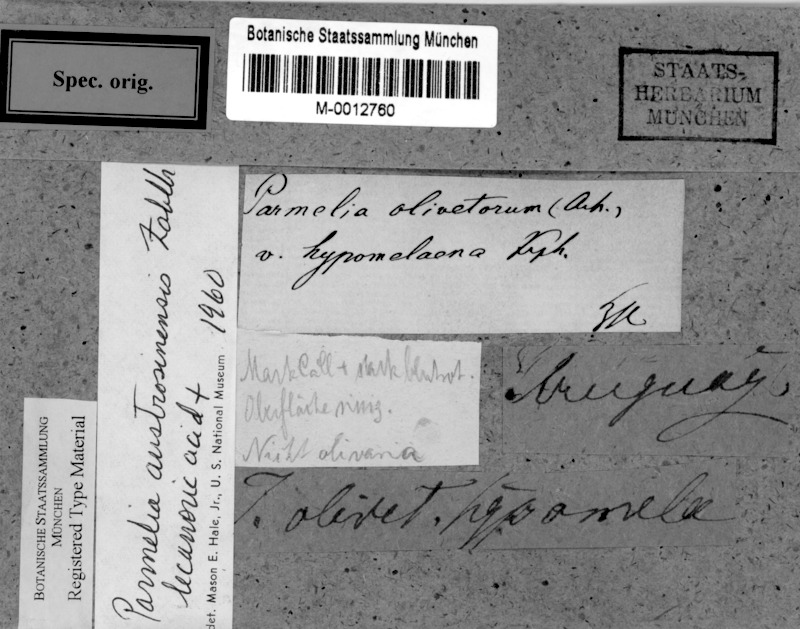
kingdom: Fungi
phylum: Ascomycota
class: Lecanoromycetes
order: Lecanorales
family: Parmeliaceae
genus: Parmotrema
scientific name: Parmotrema austrosinense
